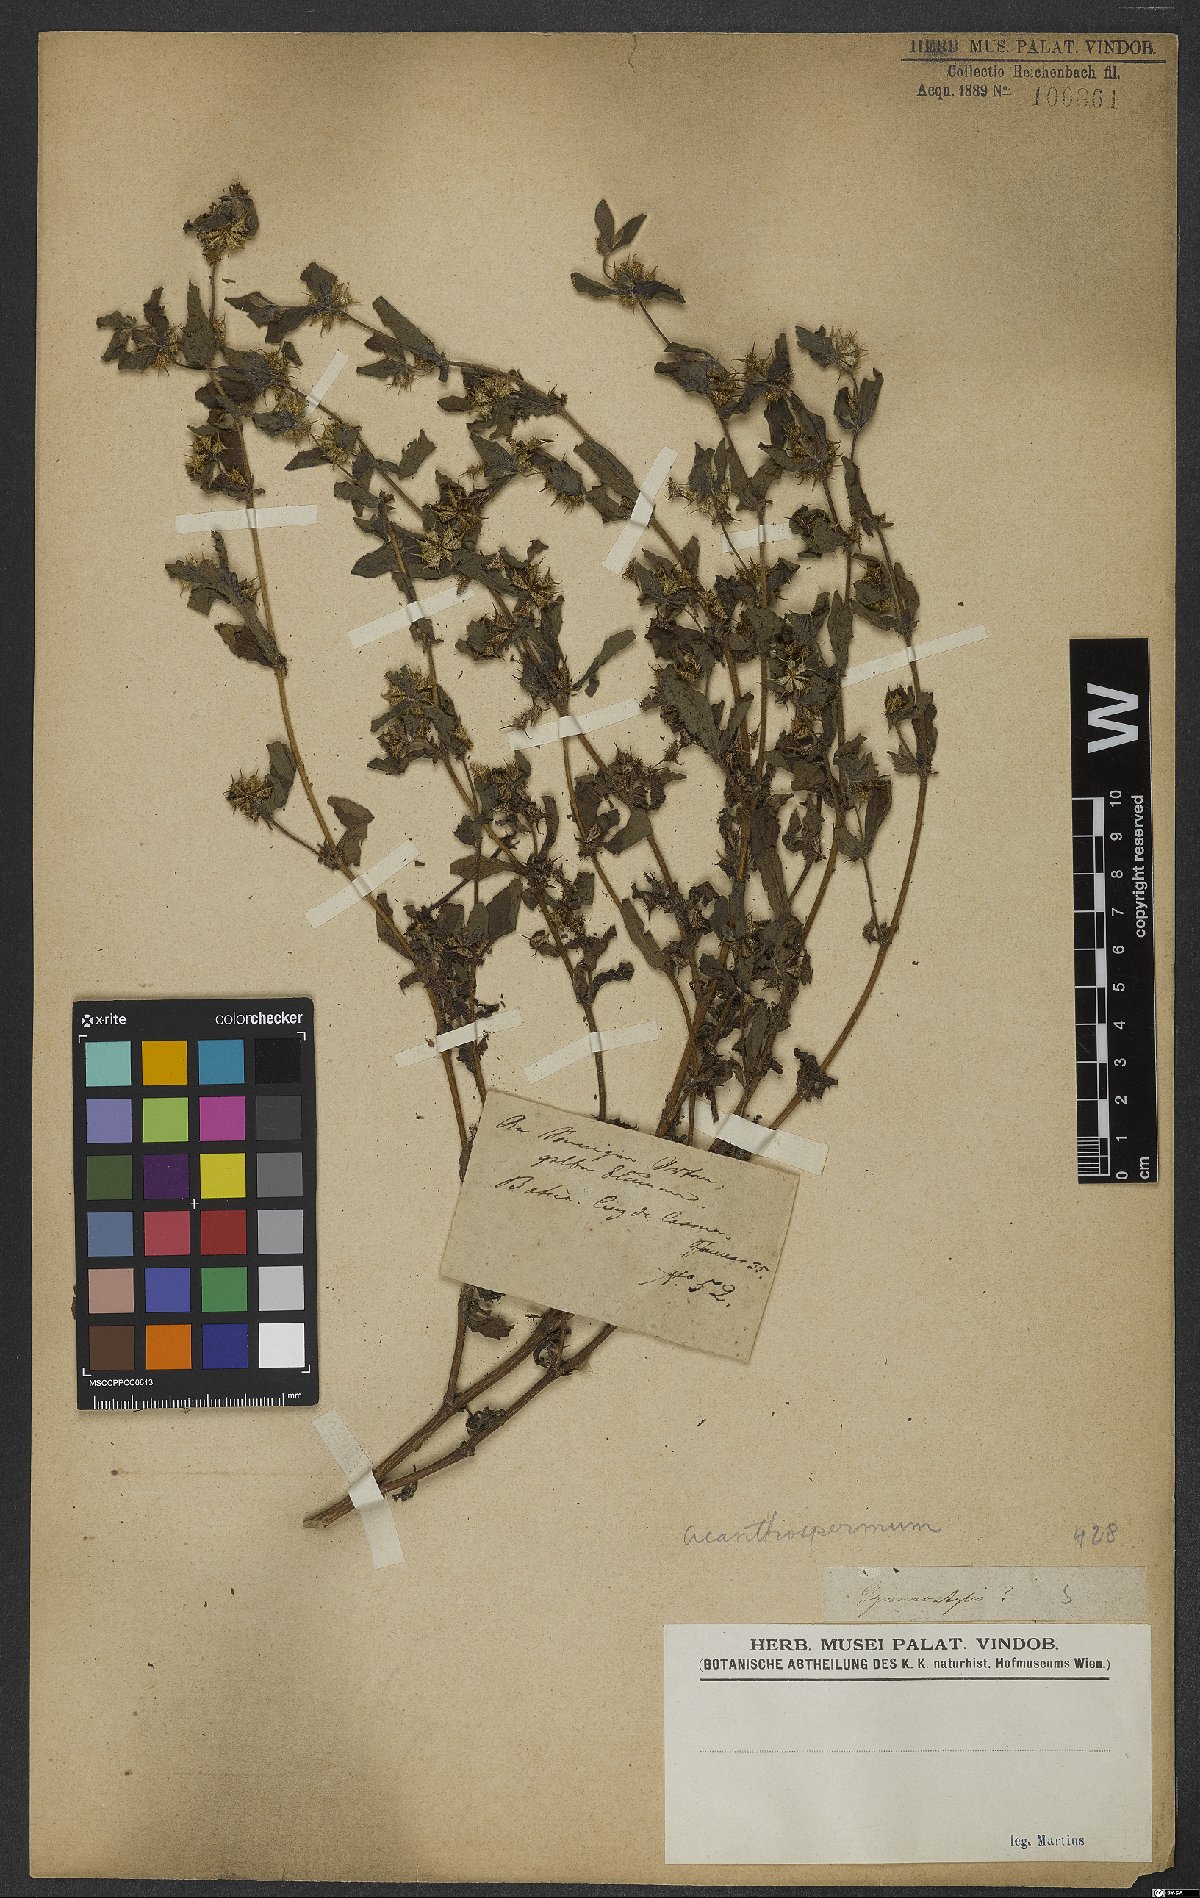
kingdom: Plantae
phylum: Tracheophyta
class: Magnoliopsida
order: Asterales
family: Asteraceae
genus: Acanthospermum
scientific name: Acanthospermum hispidum
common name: Hispid starbur
